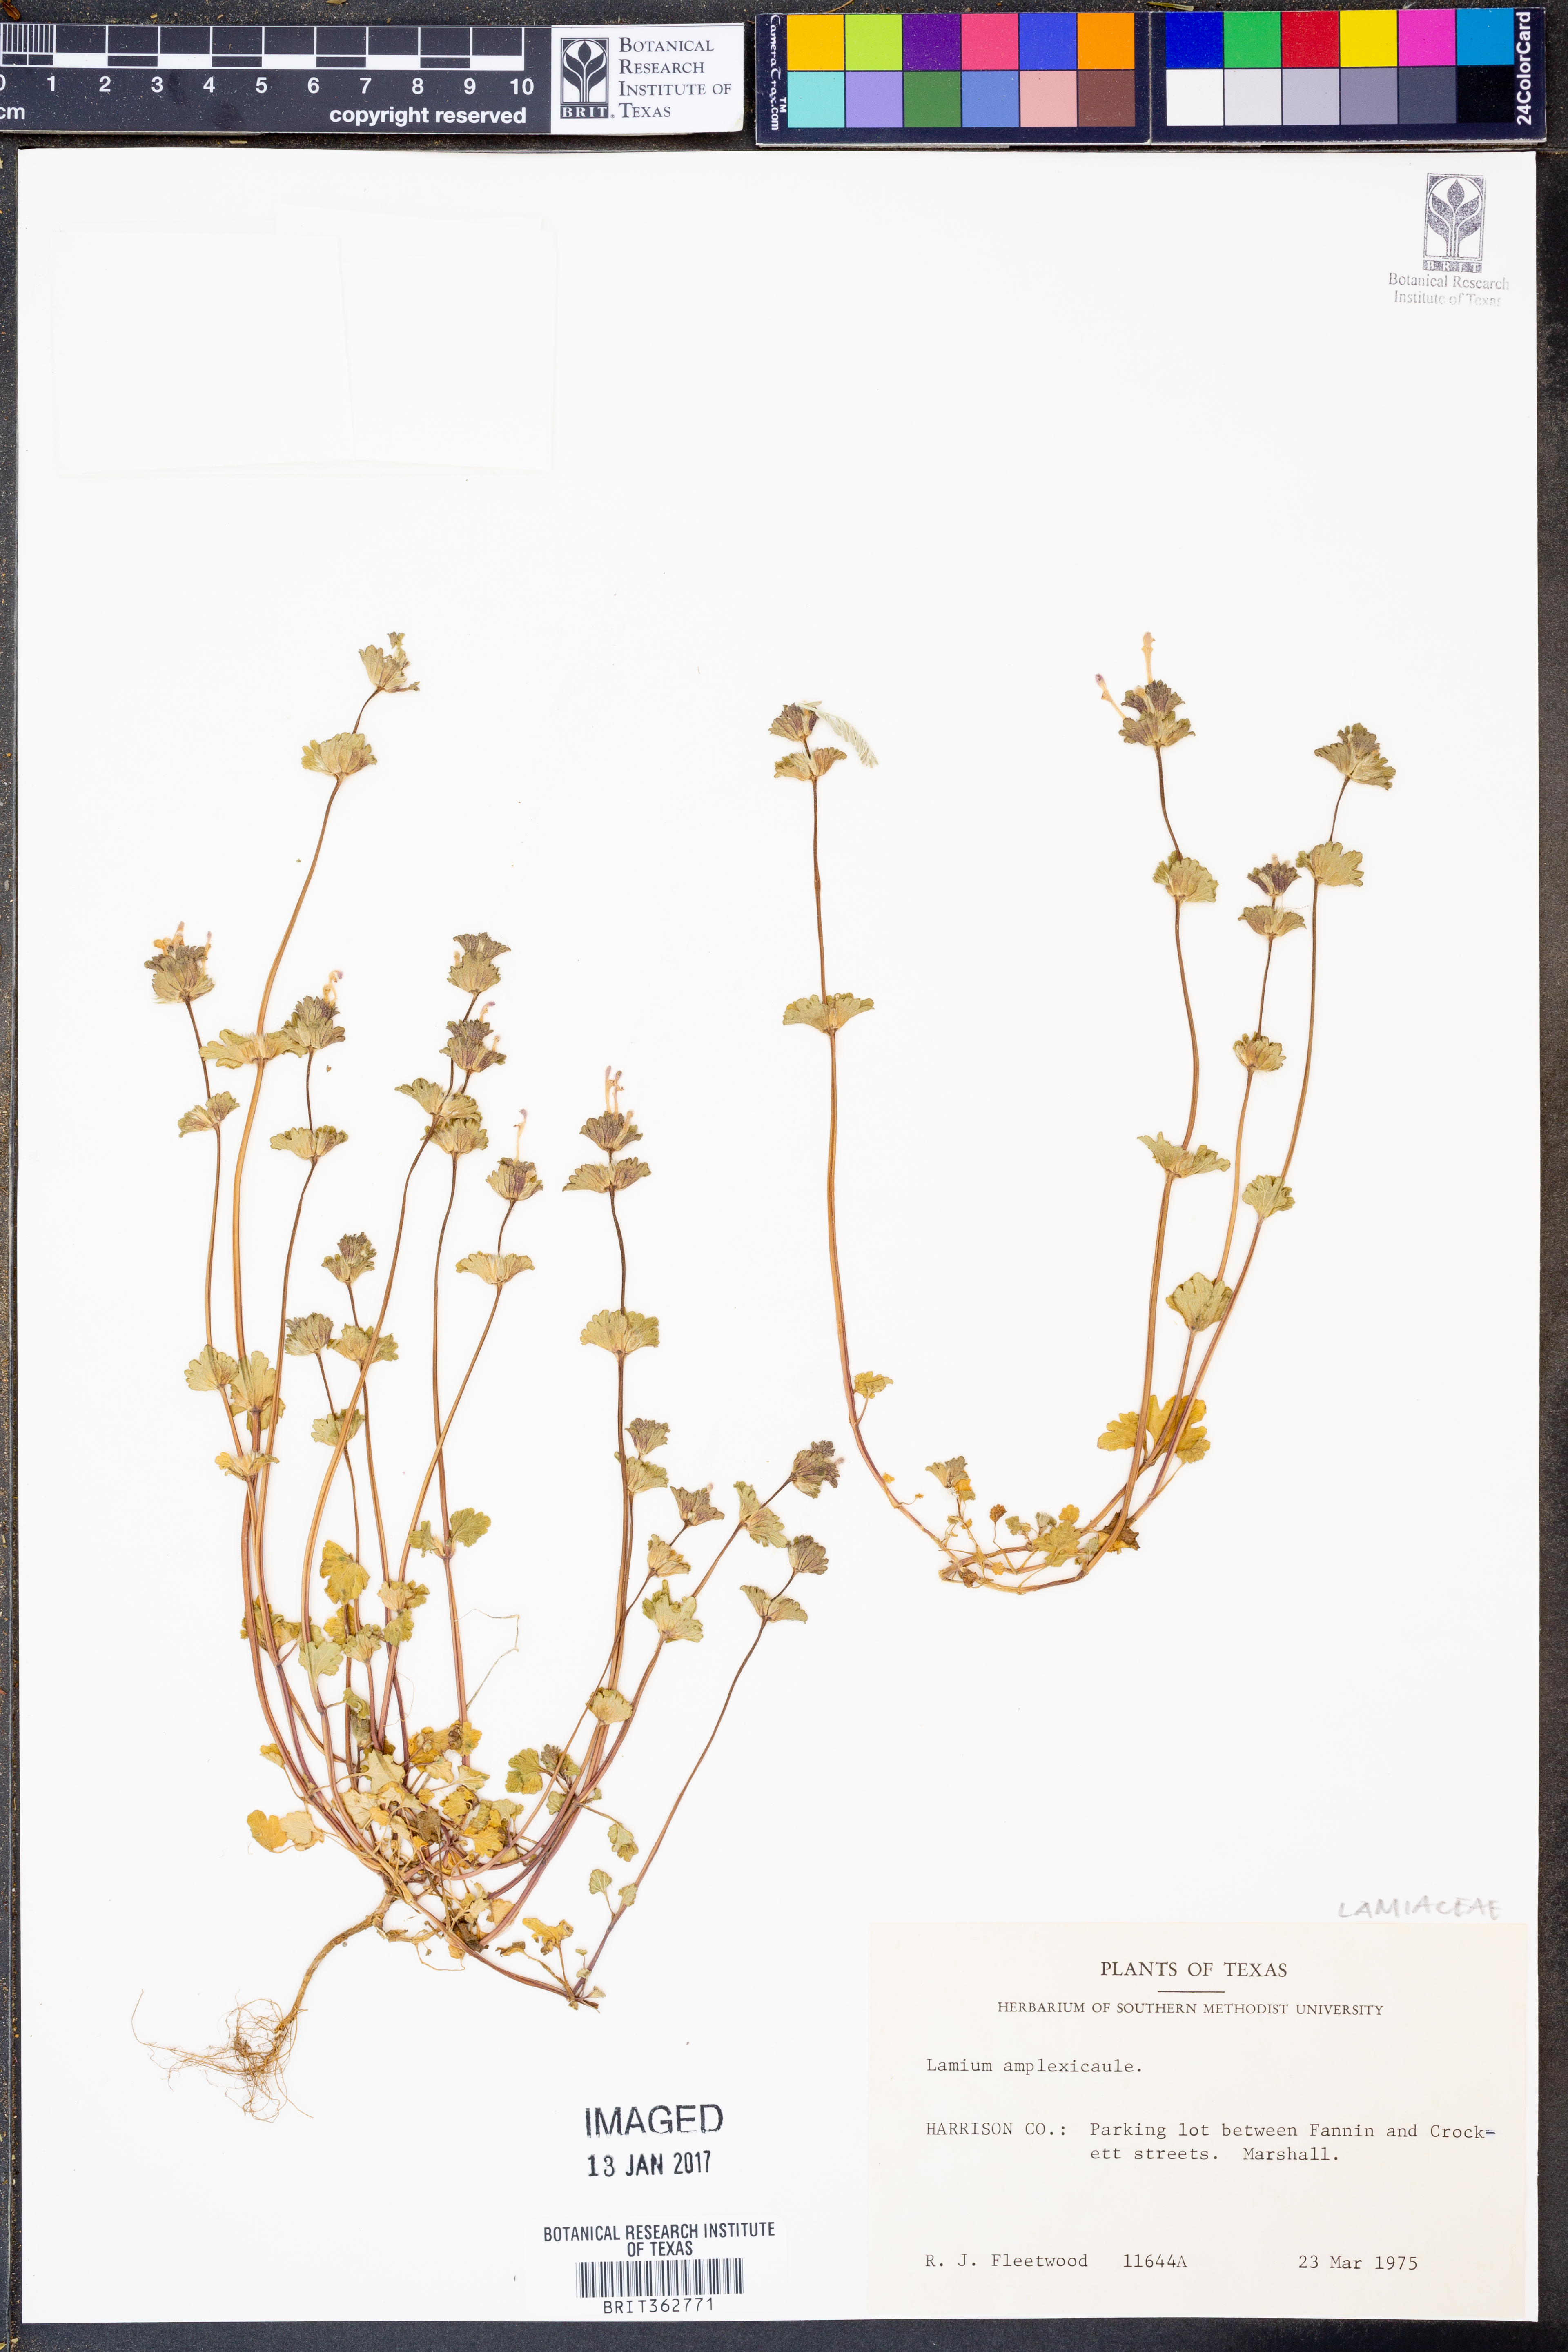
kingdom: Plantae
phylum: Tracheophyta
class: Magnoliopsida
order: Lamiales
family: Lamiaceae
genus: Lamium
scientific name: Lamium amplexicaule
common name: Henbit dead-nettle
